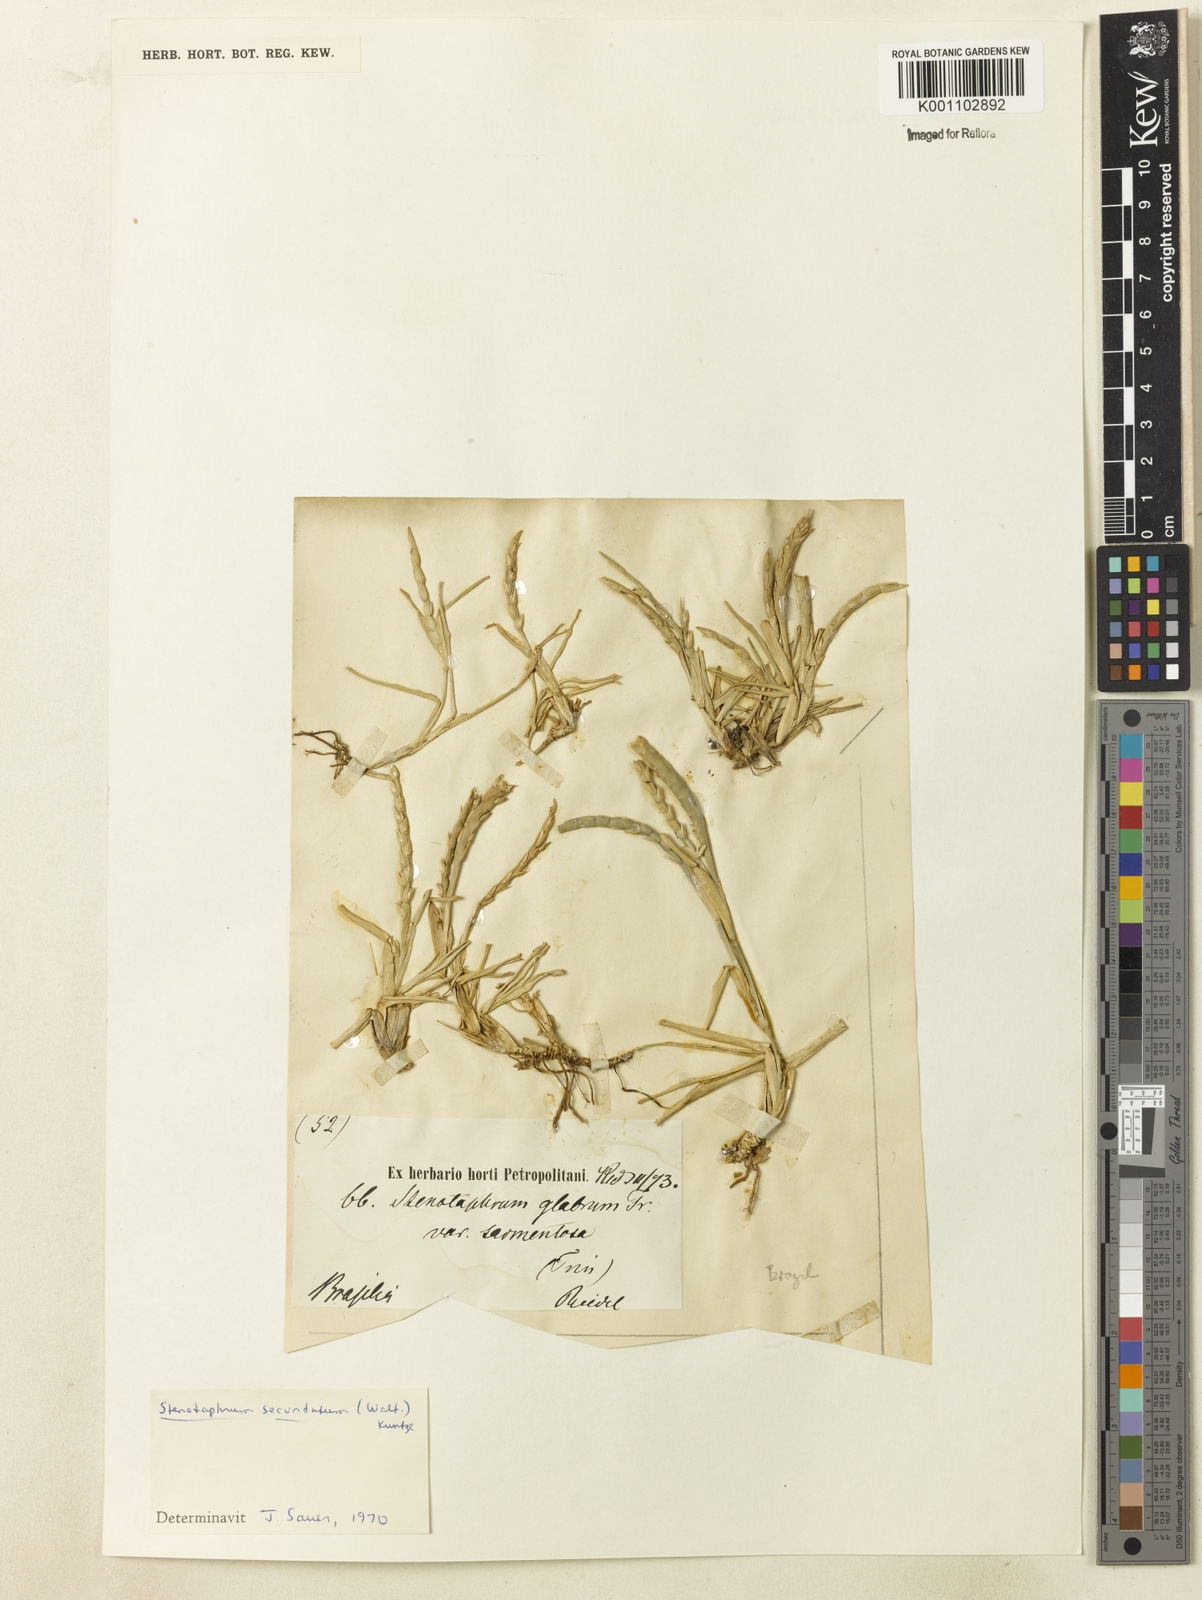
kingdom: Plantae
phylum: Tracheophyta
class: Liliopsida
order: Poales
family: Poaceae
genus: Stenotaphrum
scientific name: Stenotaphrum secundatum
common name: St. augustine grass
